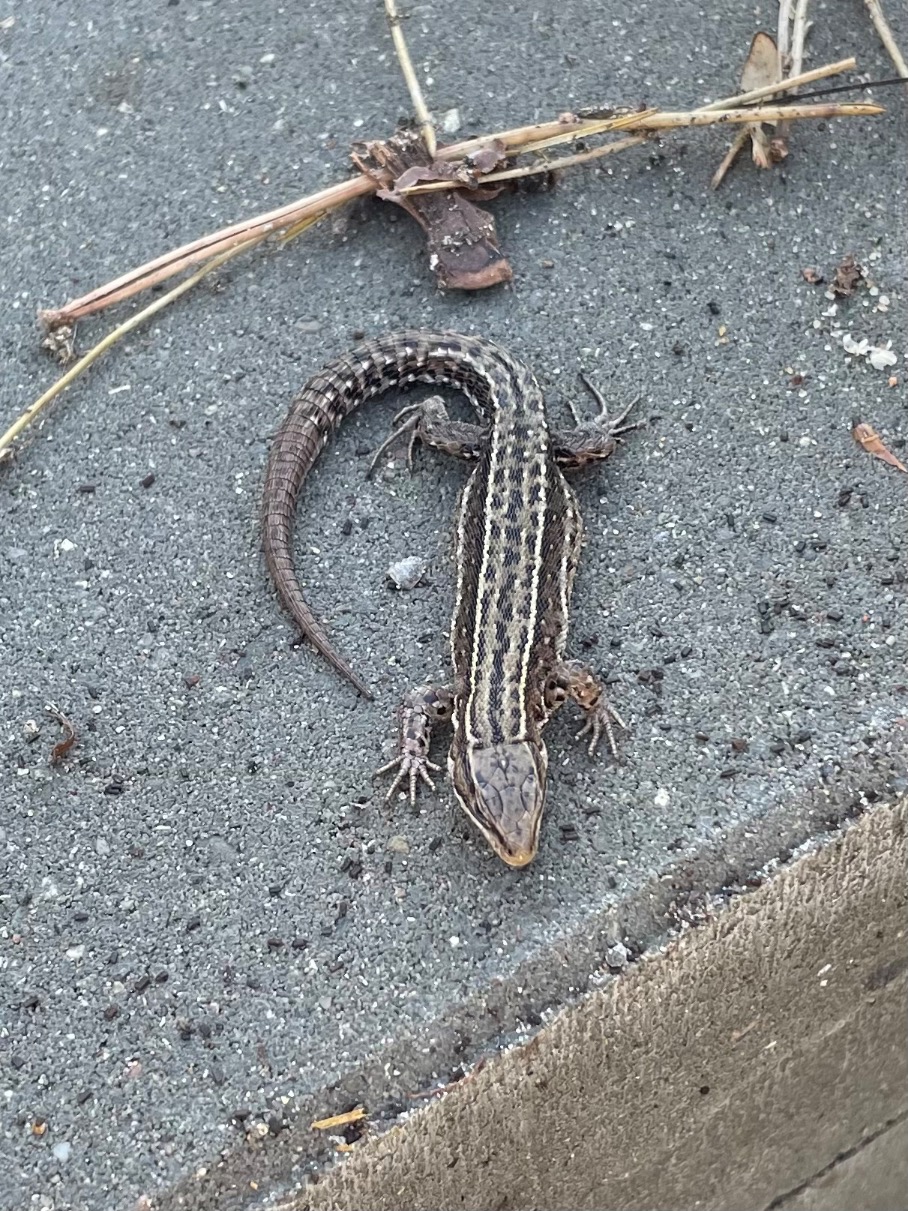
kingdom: Animalia
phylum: Chordata
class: Squamata
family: Lacertidae
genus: Zootoca
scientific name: Zootoca vivipara
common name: Skovfirben
